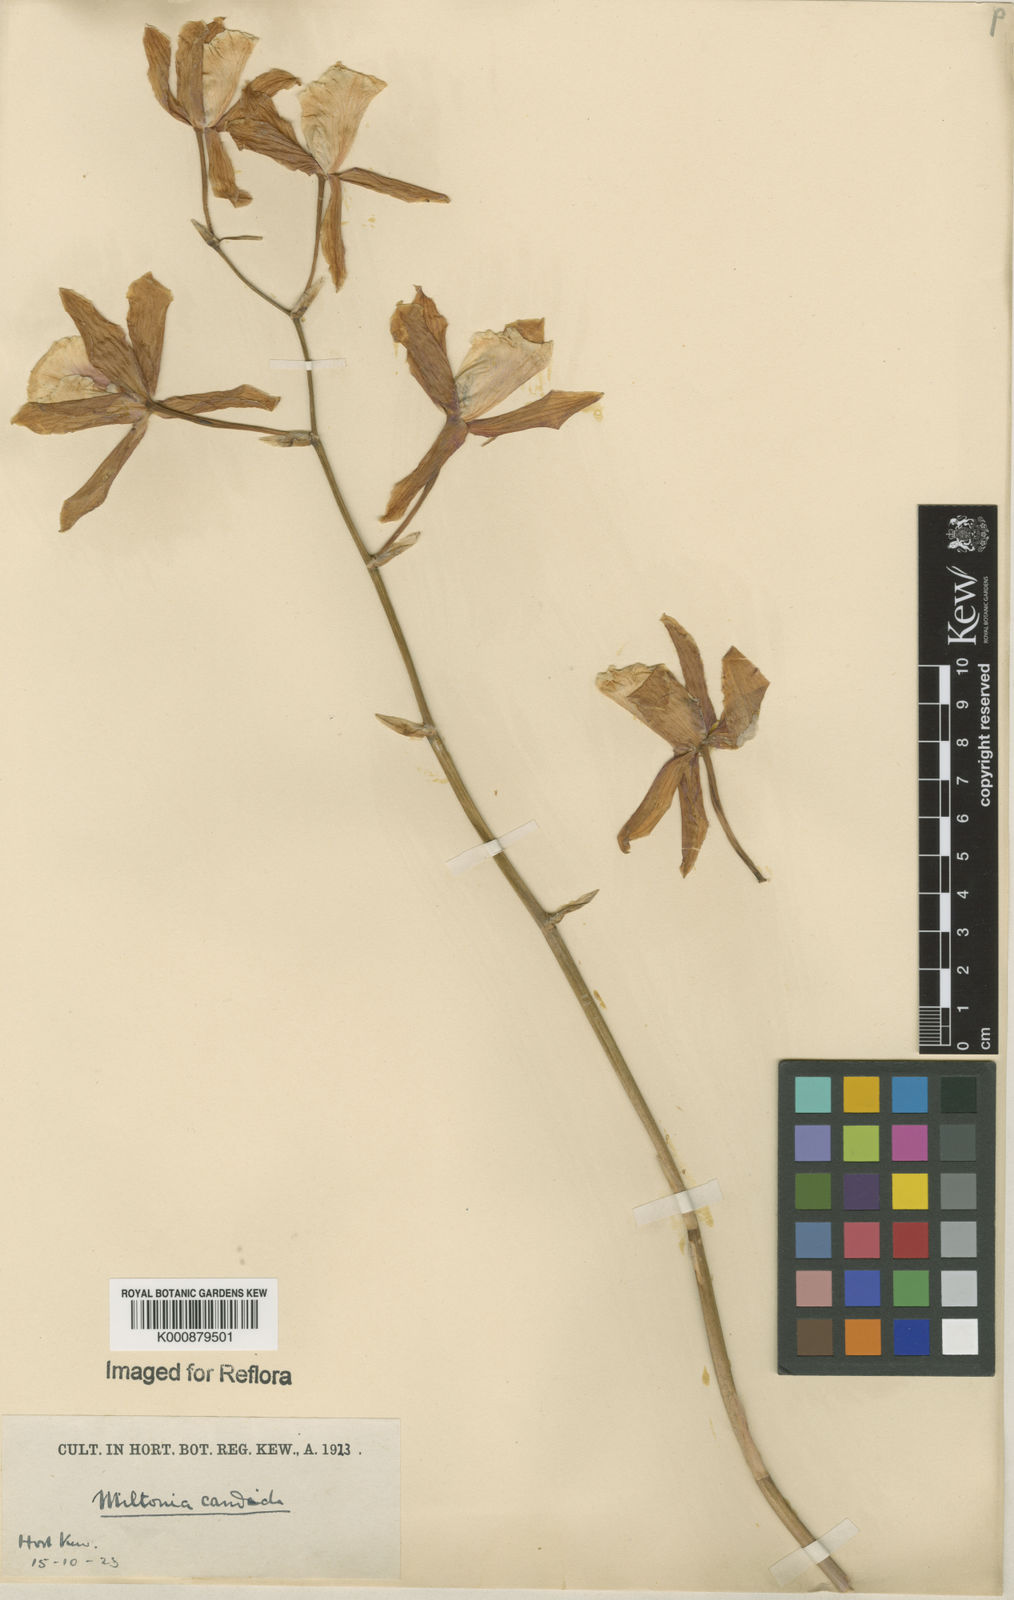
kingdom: Plantae
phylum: Tracheophyta
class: Liliopsida
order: Asparagales
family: Orchidaceae
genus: Miltonia
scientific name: Miltonia candida
